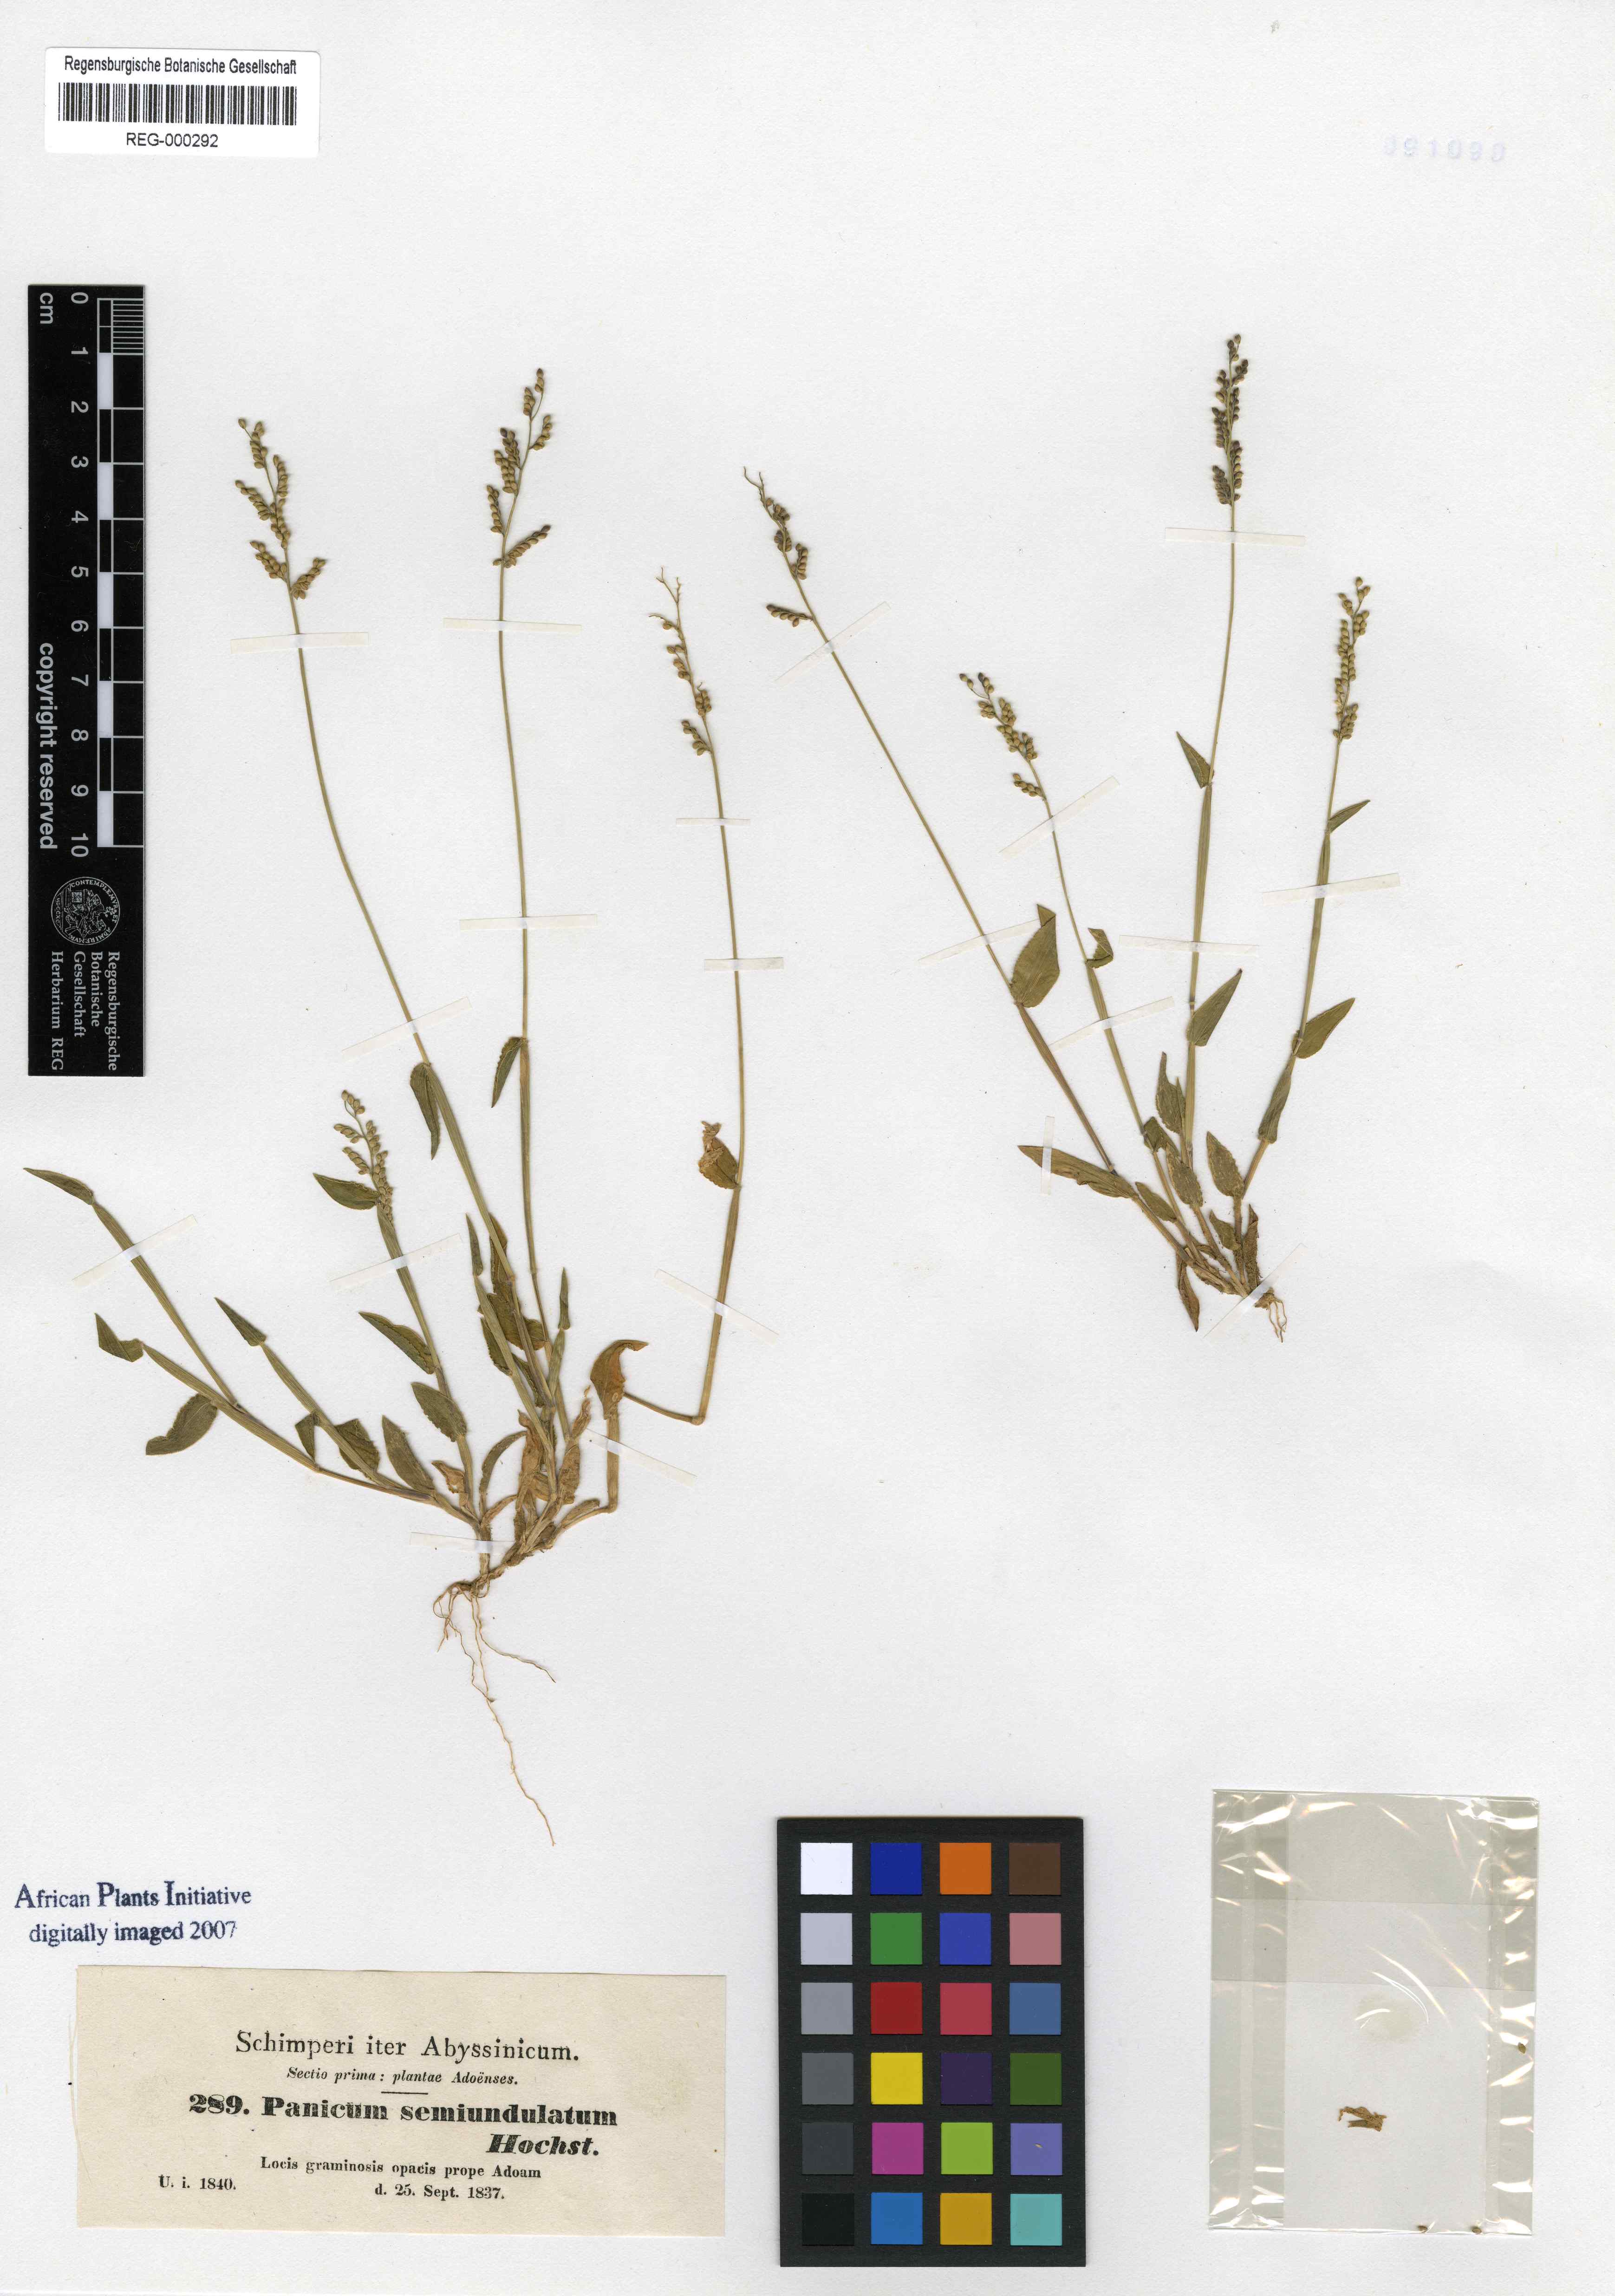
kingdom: Plantae
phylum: Tracheophyta
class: Liliopsida
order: Poales
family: Poaceae
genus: Panicum
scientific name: Panicum semiundulatum
